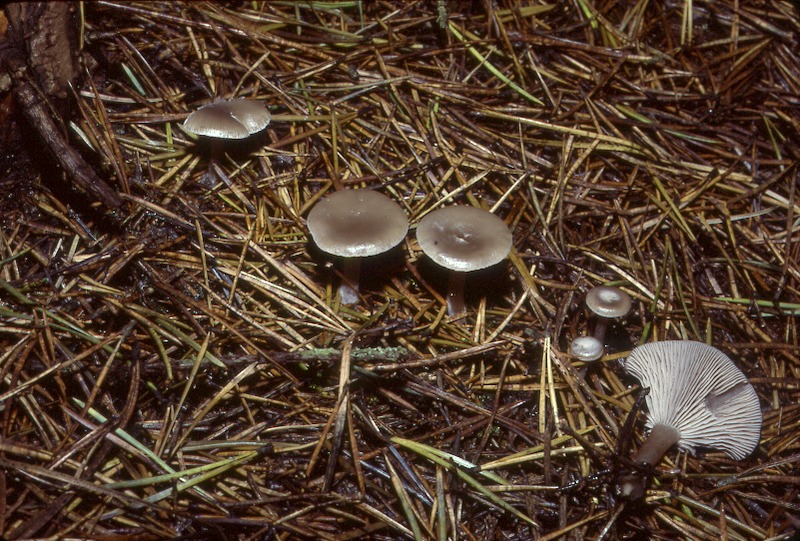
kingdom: Fungi
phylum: Basidiomycota
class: Agaricomycetes
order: Agaricales
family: Tricholomataceae
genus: Clitocybe
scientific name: Clitocybe vibecina
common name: Mealy funnel
